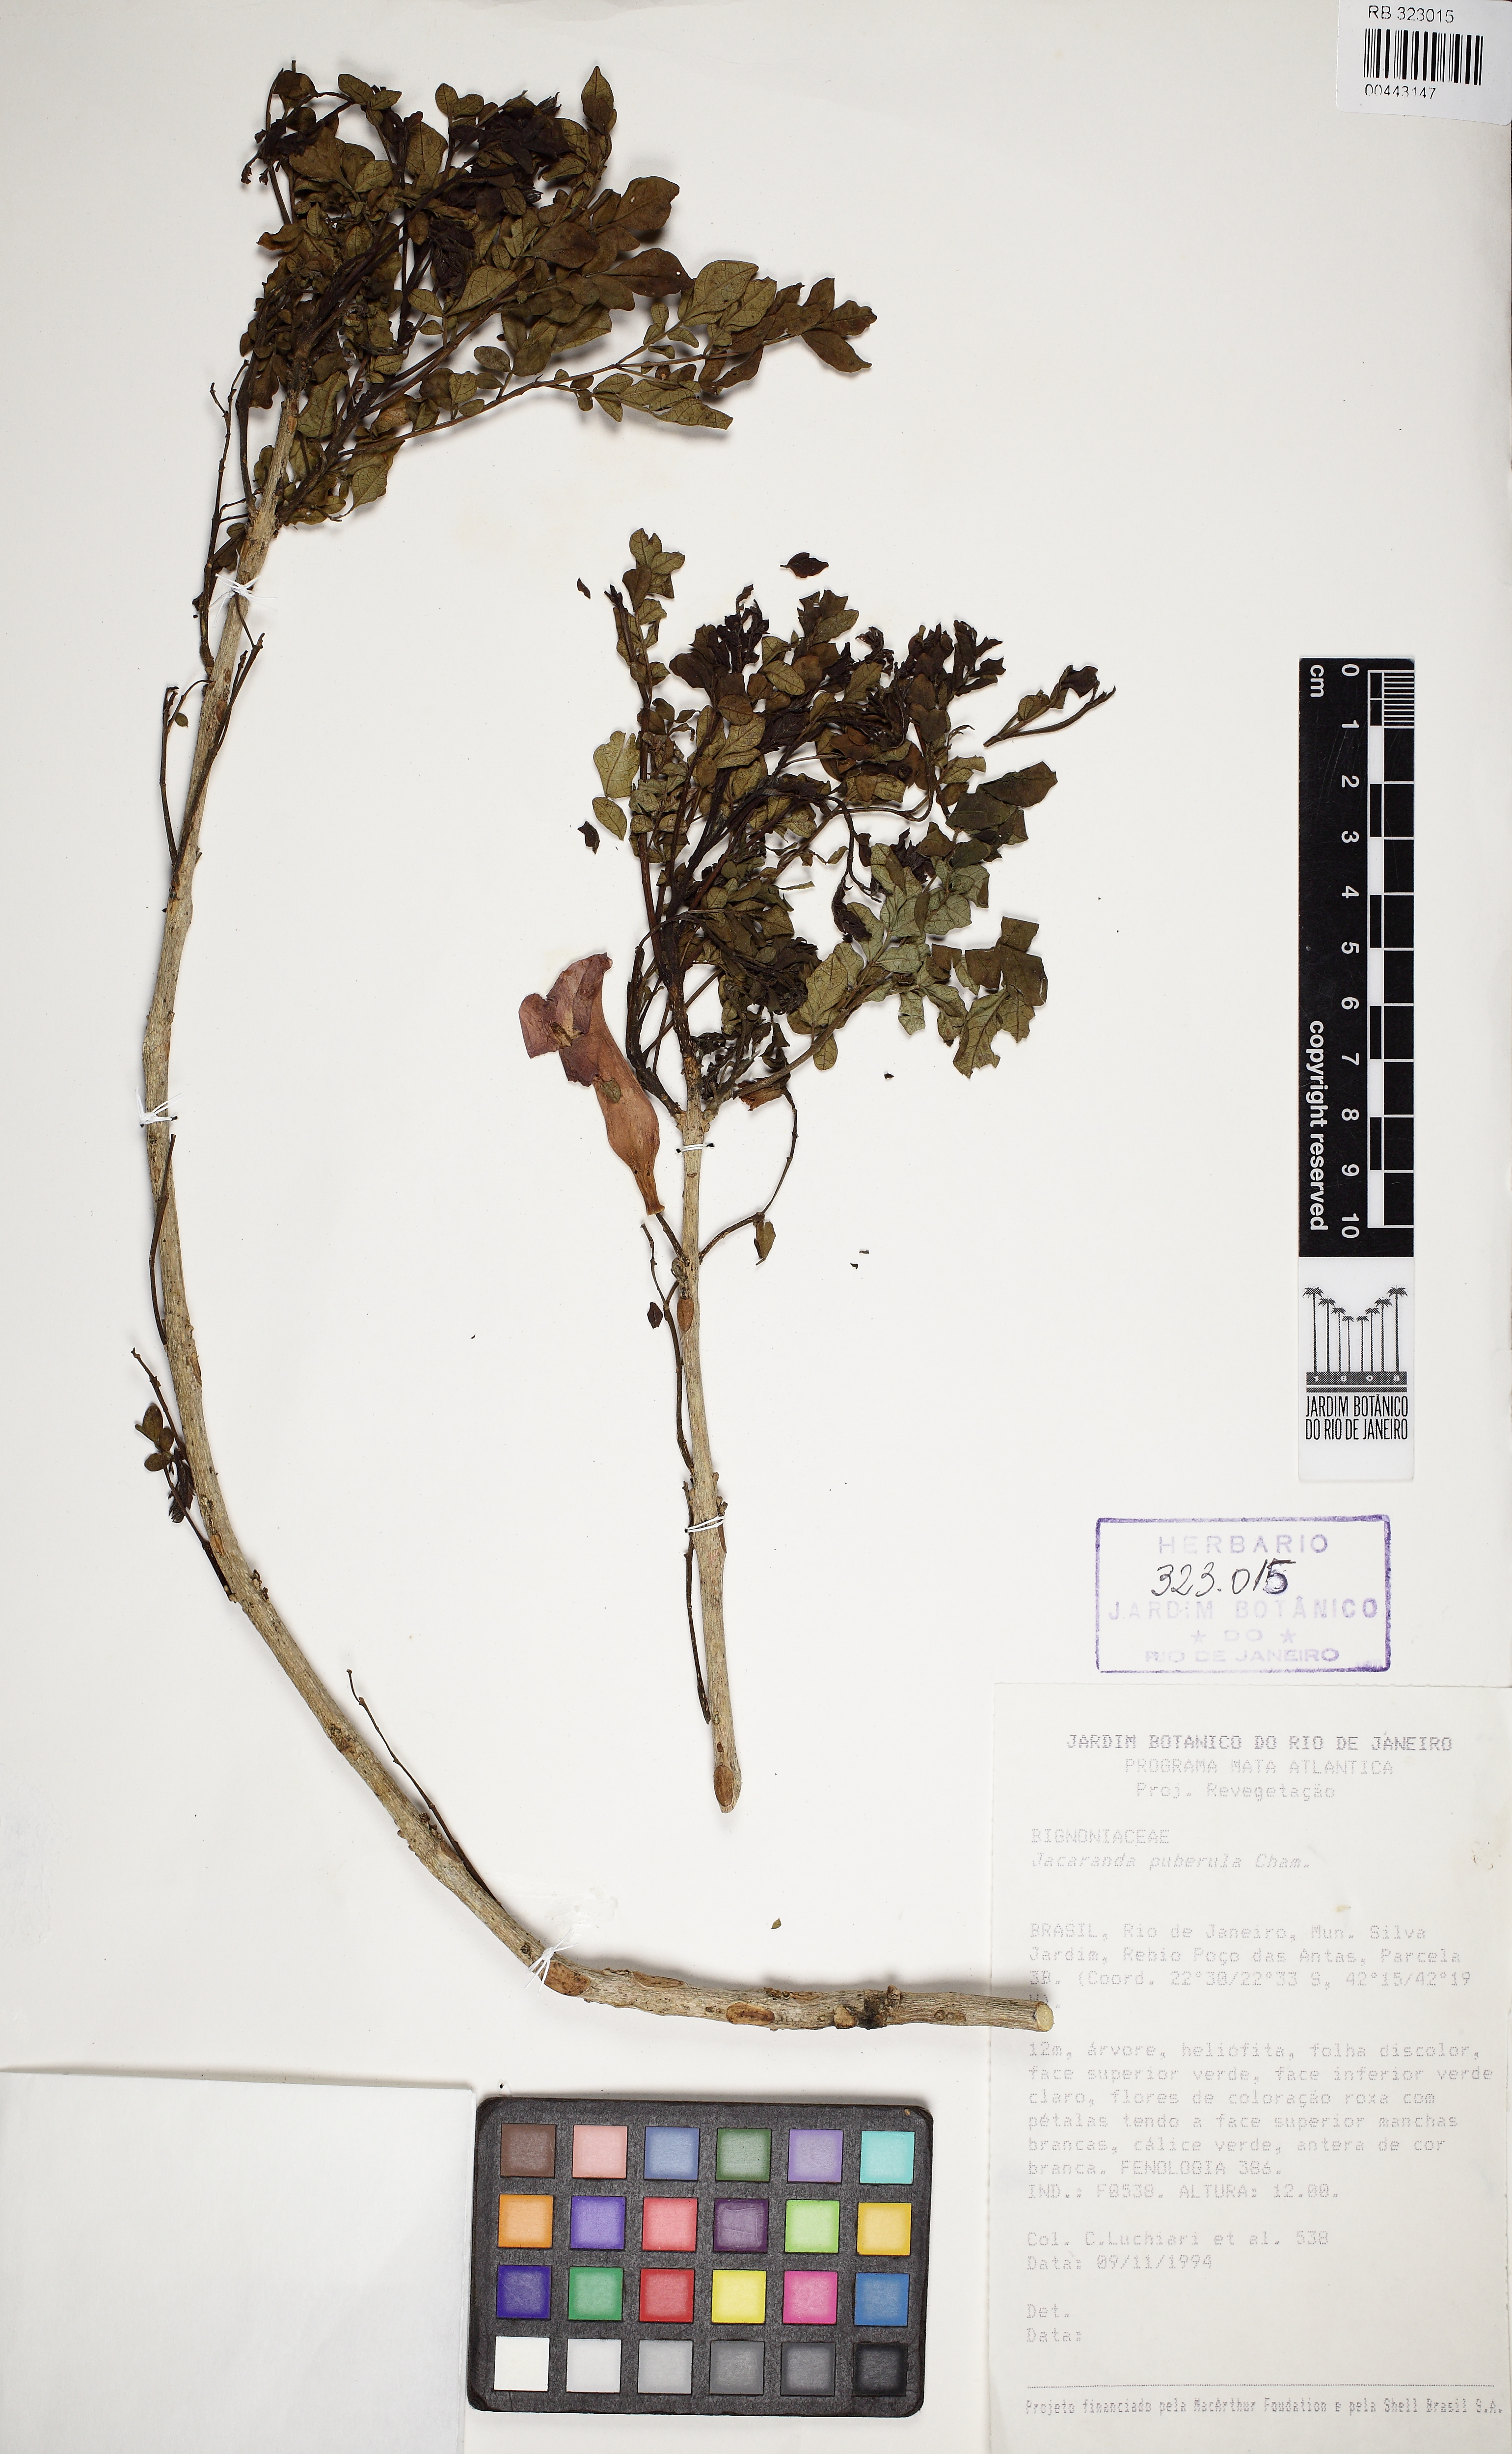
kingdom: Plantae
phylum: Tracheophyta
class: Magnoliopsida
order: Lamiales
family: Bignoniaceae
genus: Jacaranda
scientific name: Jacaranda puberula
